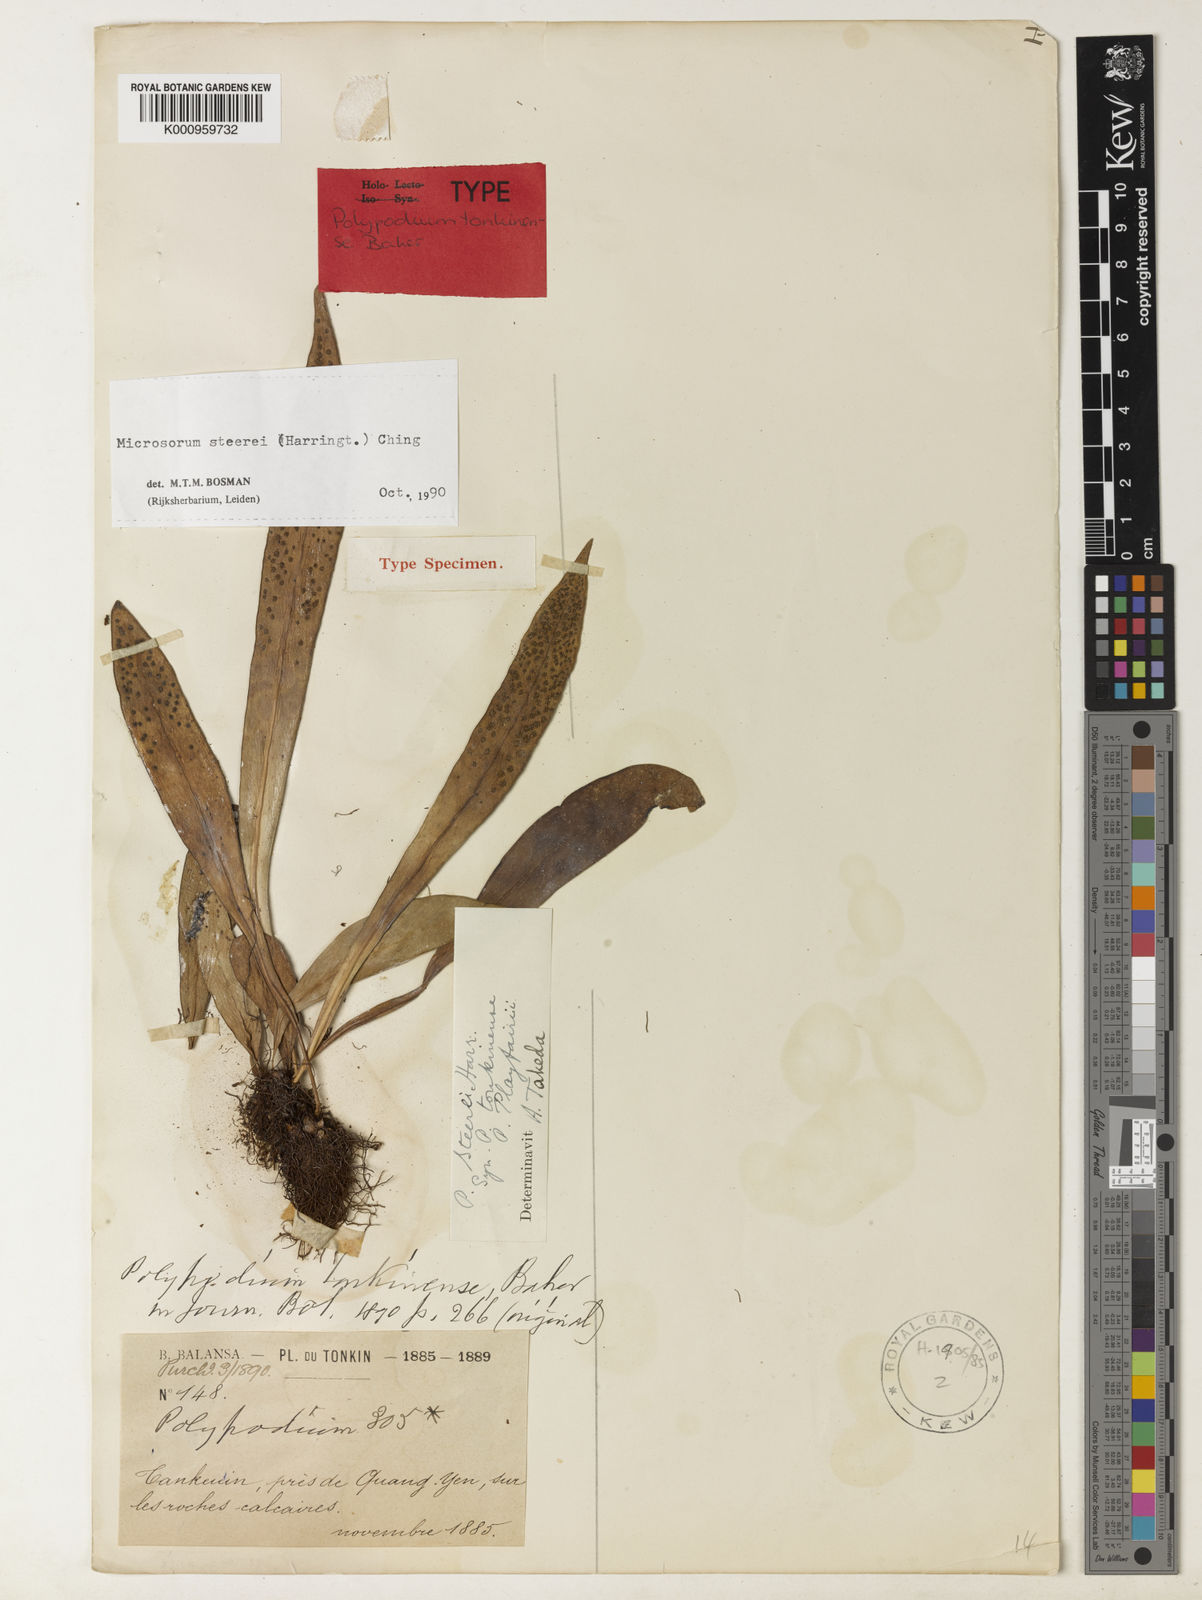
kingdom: Plantae
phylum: Tracheophyta
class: Polypodiopsida
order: Polypodiales
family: Polypodiaceae
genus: Microsorum
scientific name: Microsorum steerei
